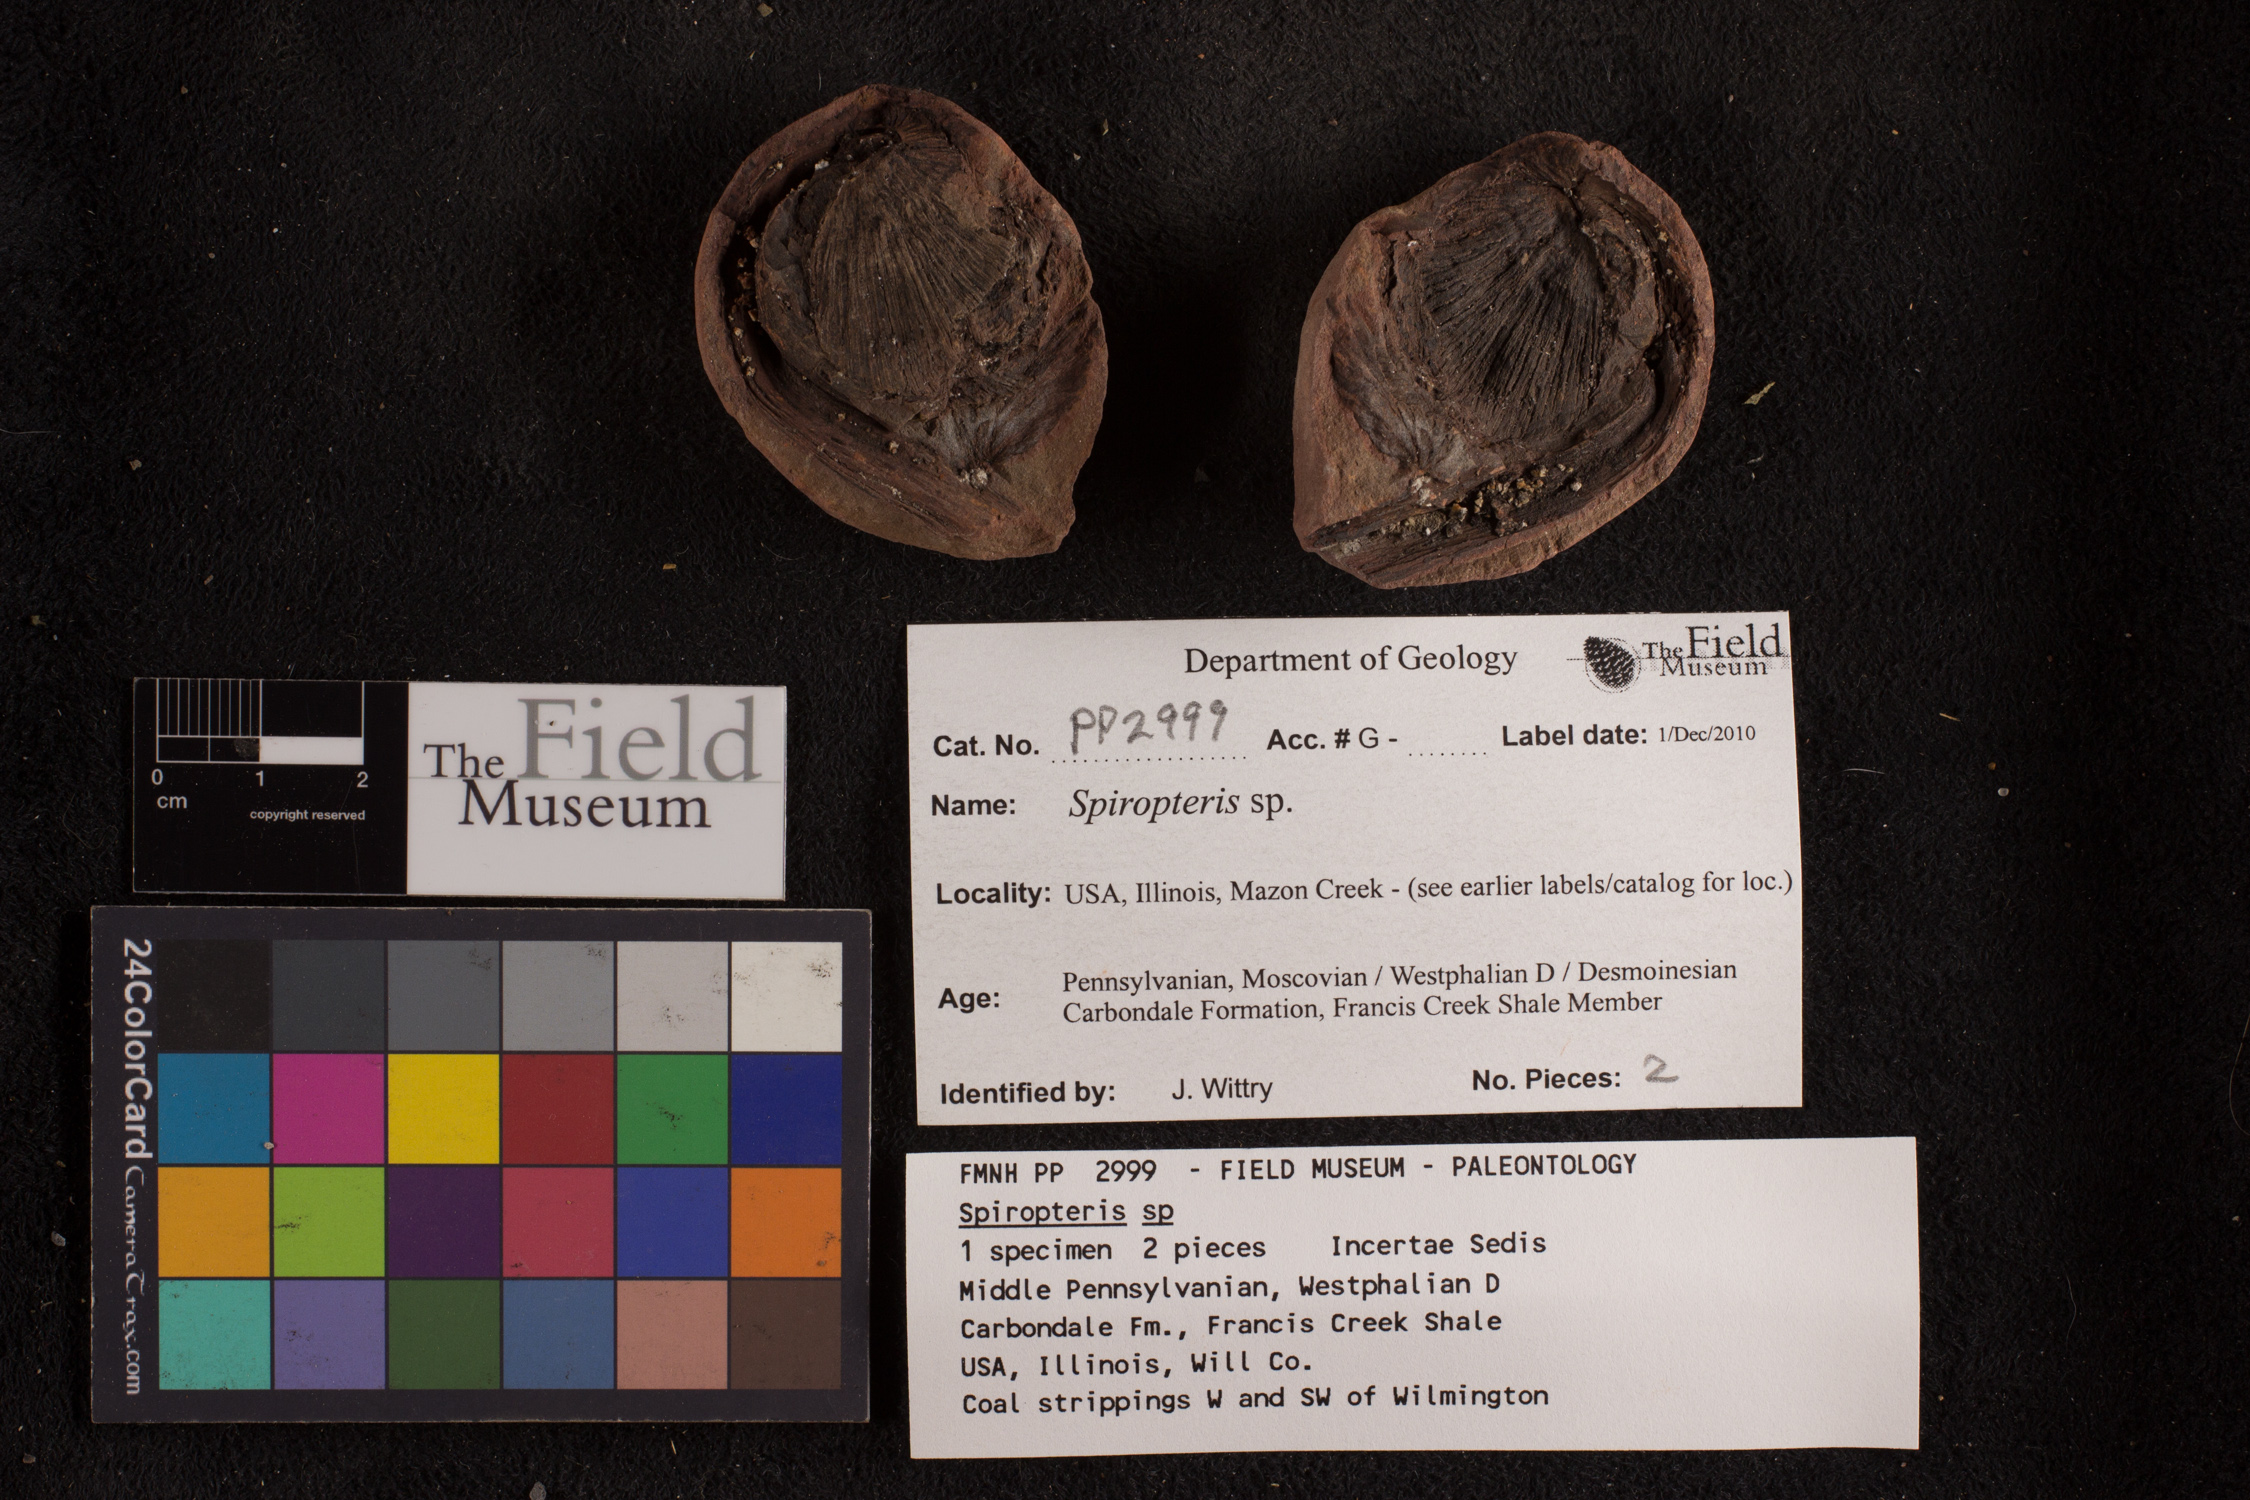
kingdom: Plantae
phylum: Tracheophyta
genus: Spiropteris
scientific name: Spiropteris
